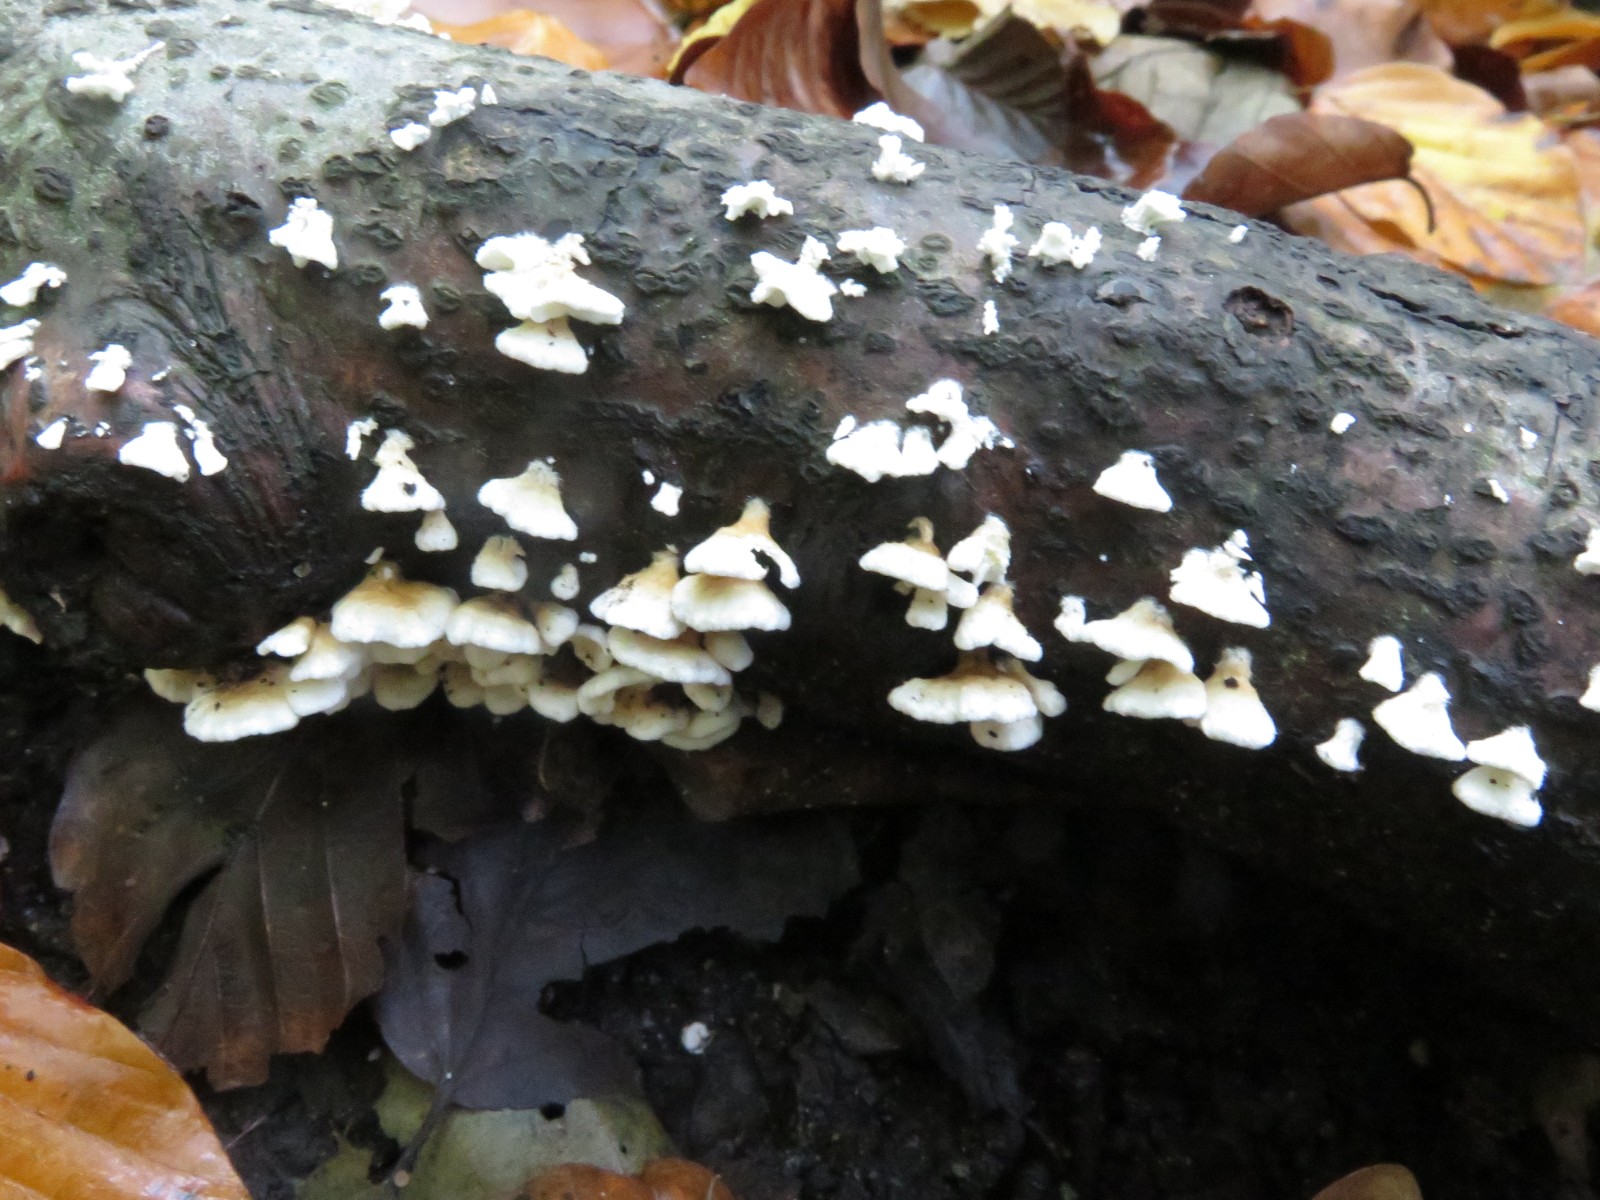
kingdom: Fungi
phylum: Basidiomycota
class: Agaricomycetes
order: Amylocorticiales
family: Amylocorticiaceae
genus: Plicaturopsis
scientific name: Plicaturopsis crispa
